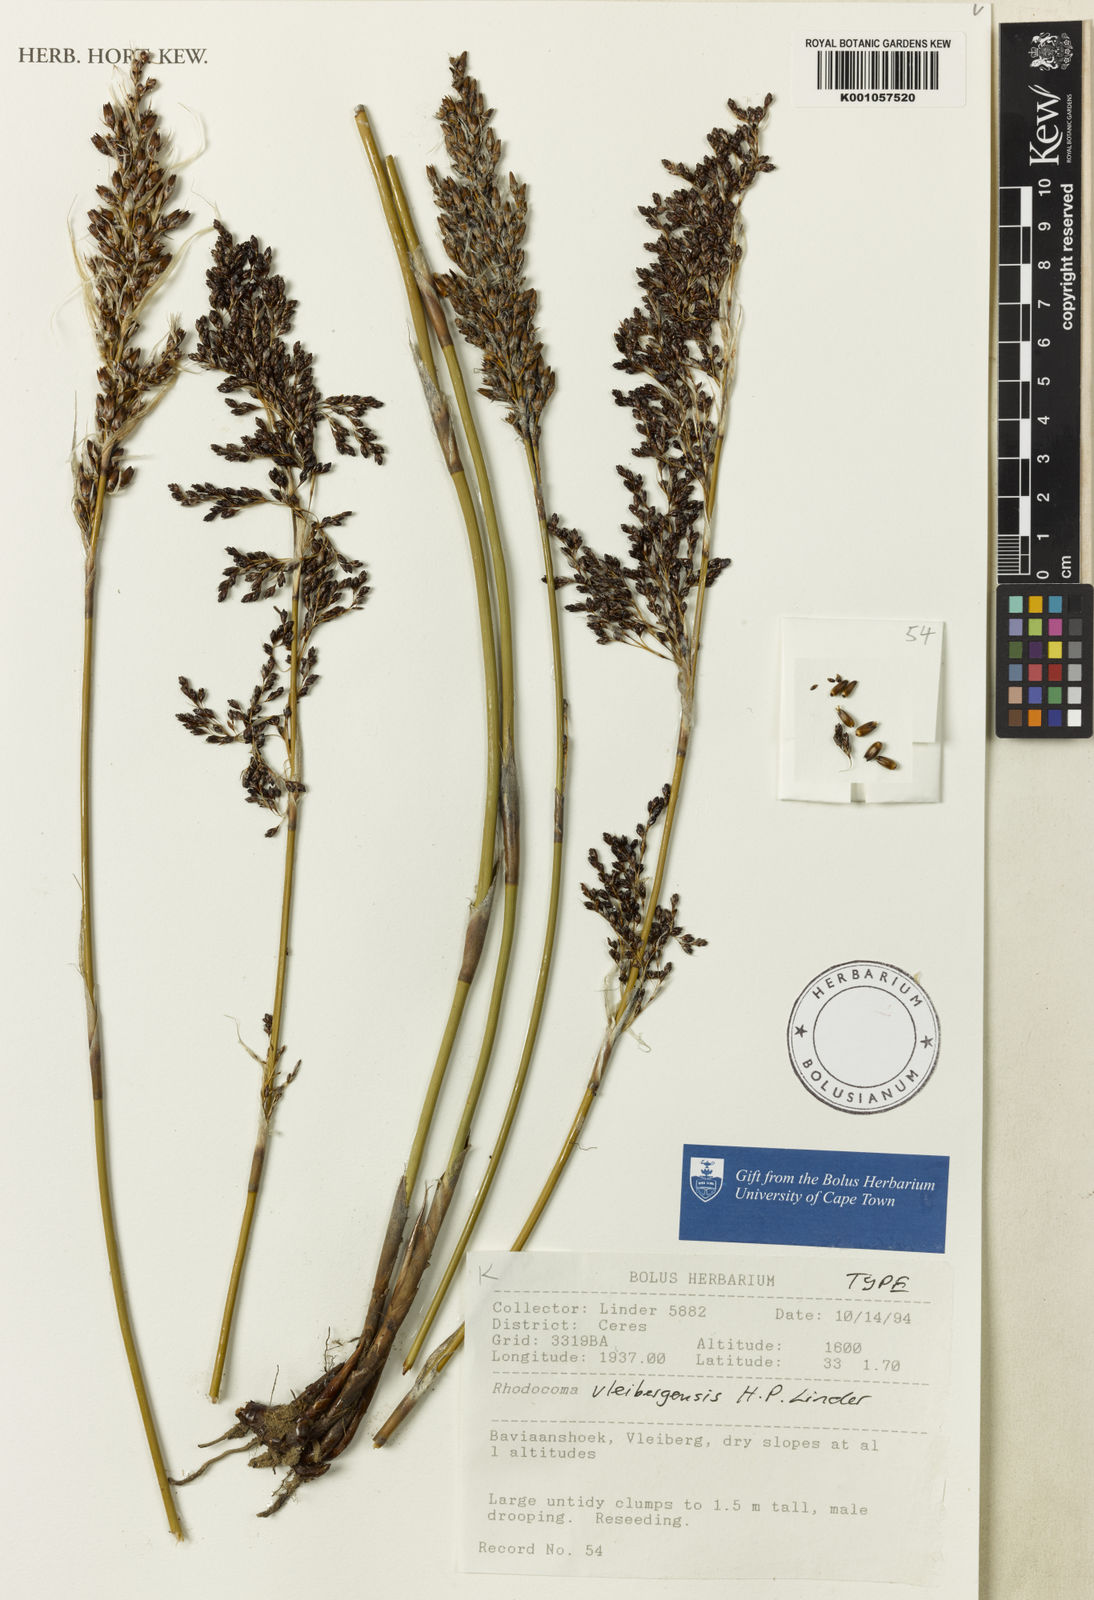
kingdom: Plantae
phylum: Tracheophyta
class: Liliopsida
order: Poales
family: Restionaceae
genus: Rhodocoma
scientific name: Rhodocoma vleibergensis
